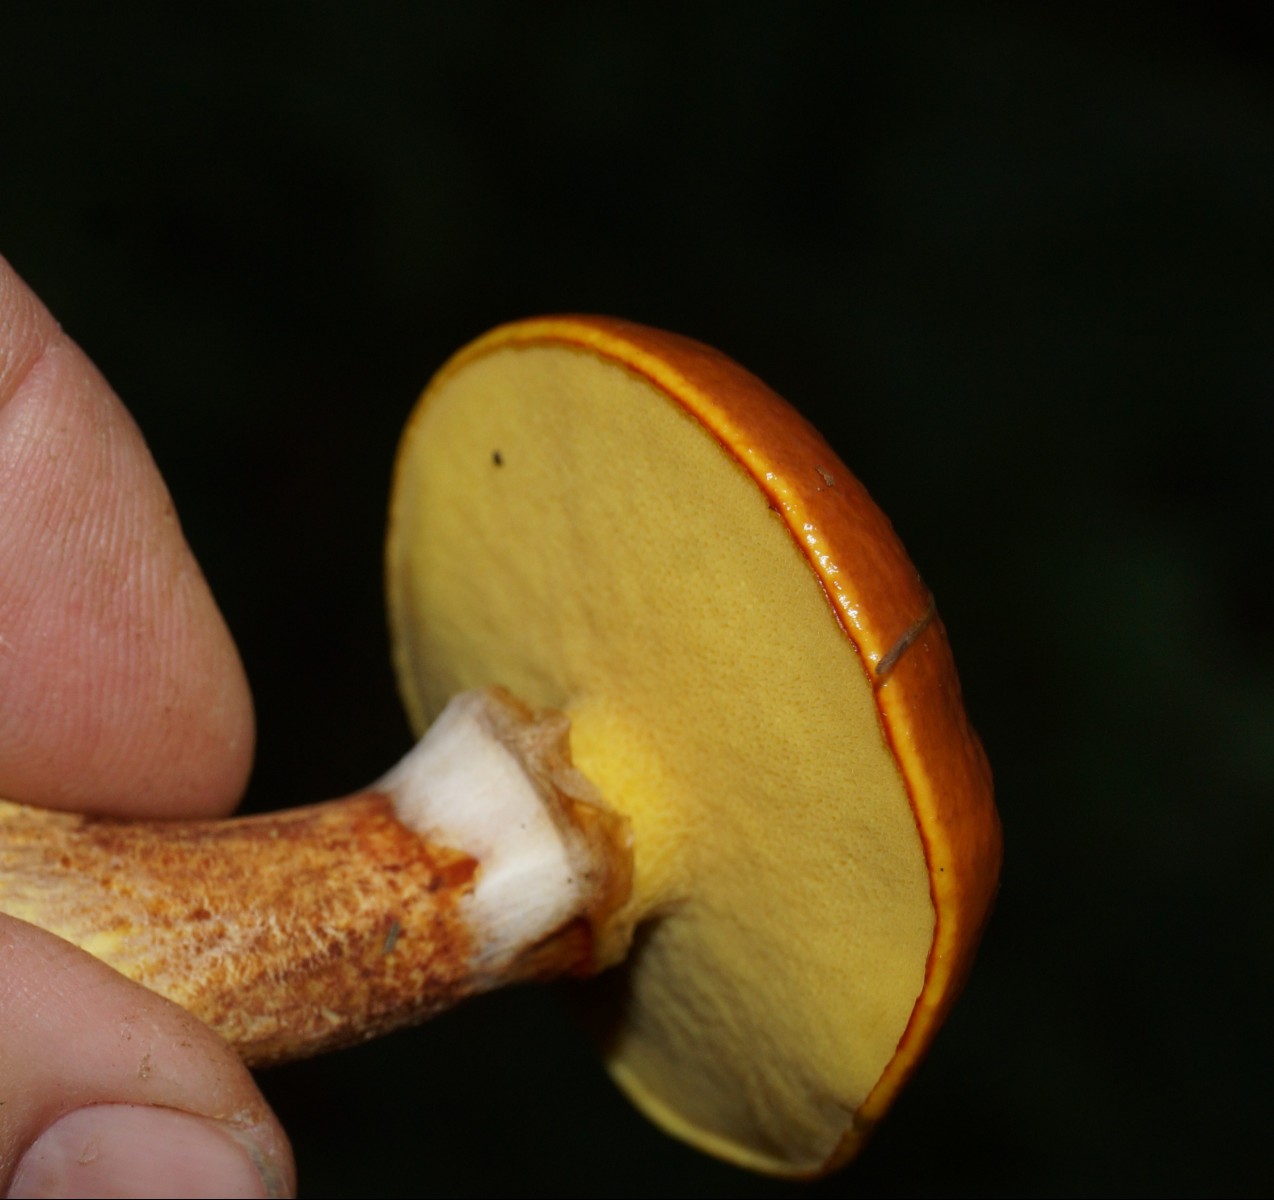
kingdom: Fungi
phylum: Basidiomycota
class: Agaricomycetes
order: Boletales
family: Suillaceae
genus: Suillus
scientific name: Suillus grevillei
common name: lærke-slimrørhat
